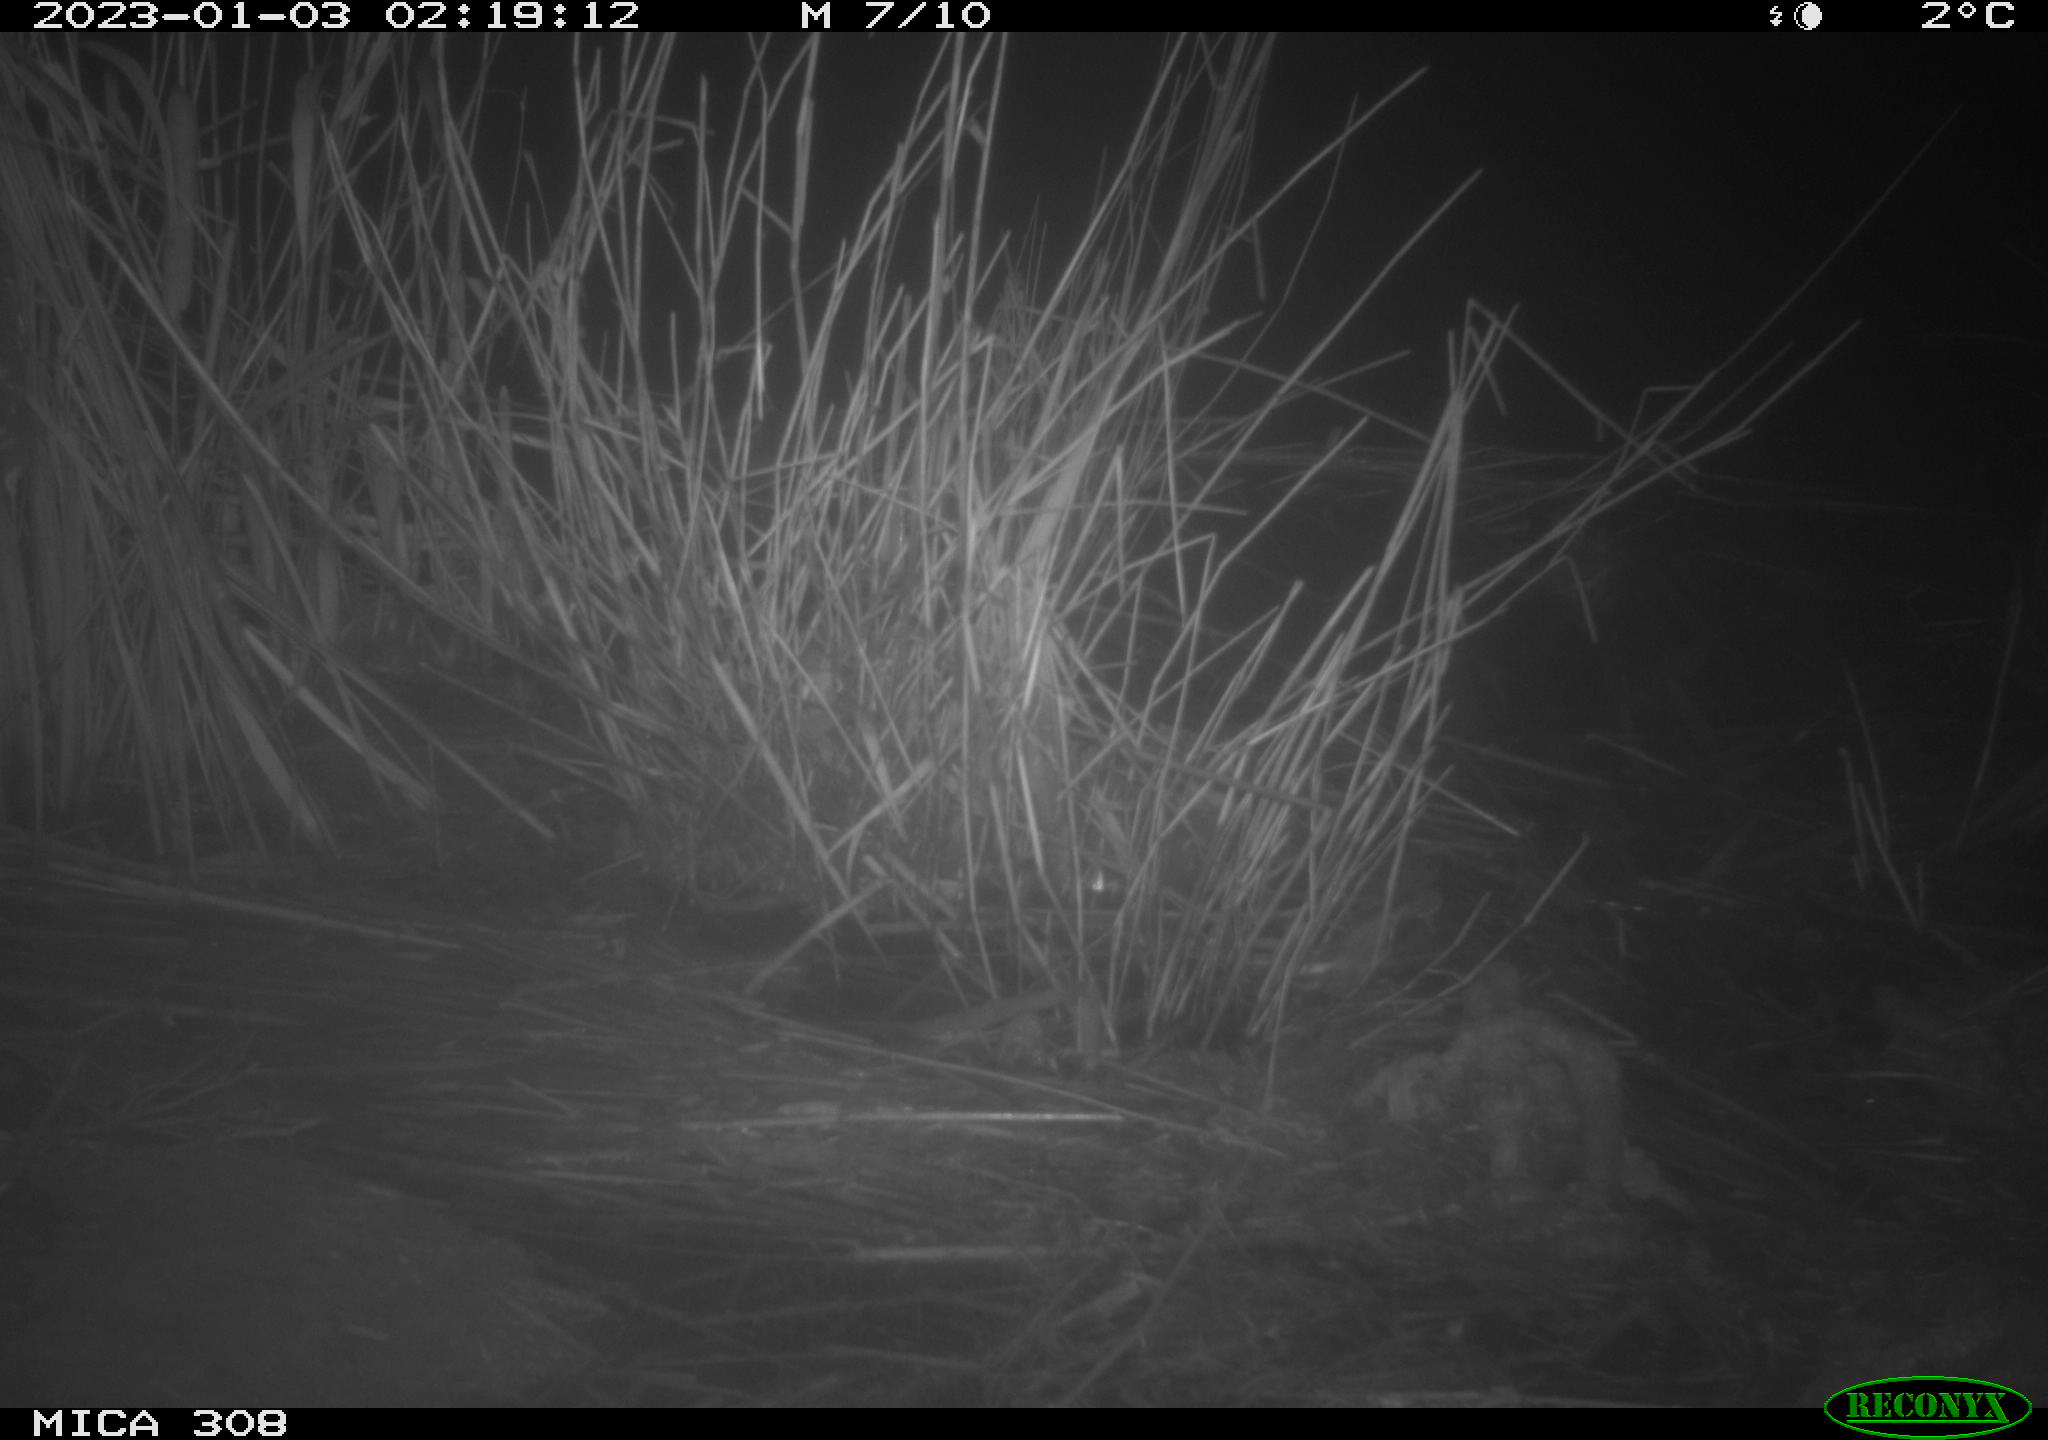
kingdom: Animalia
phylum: Chordata
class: Mammalia
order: Rodentia
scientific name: Rodentia
